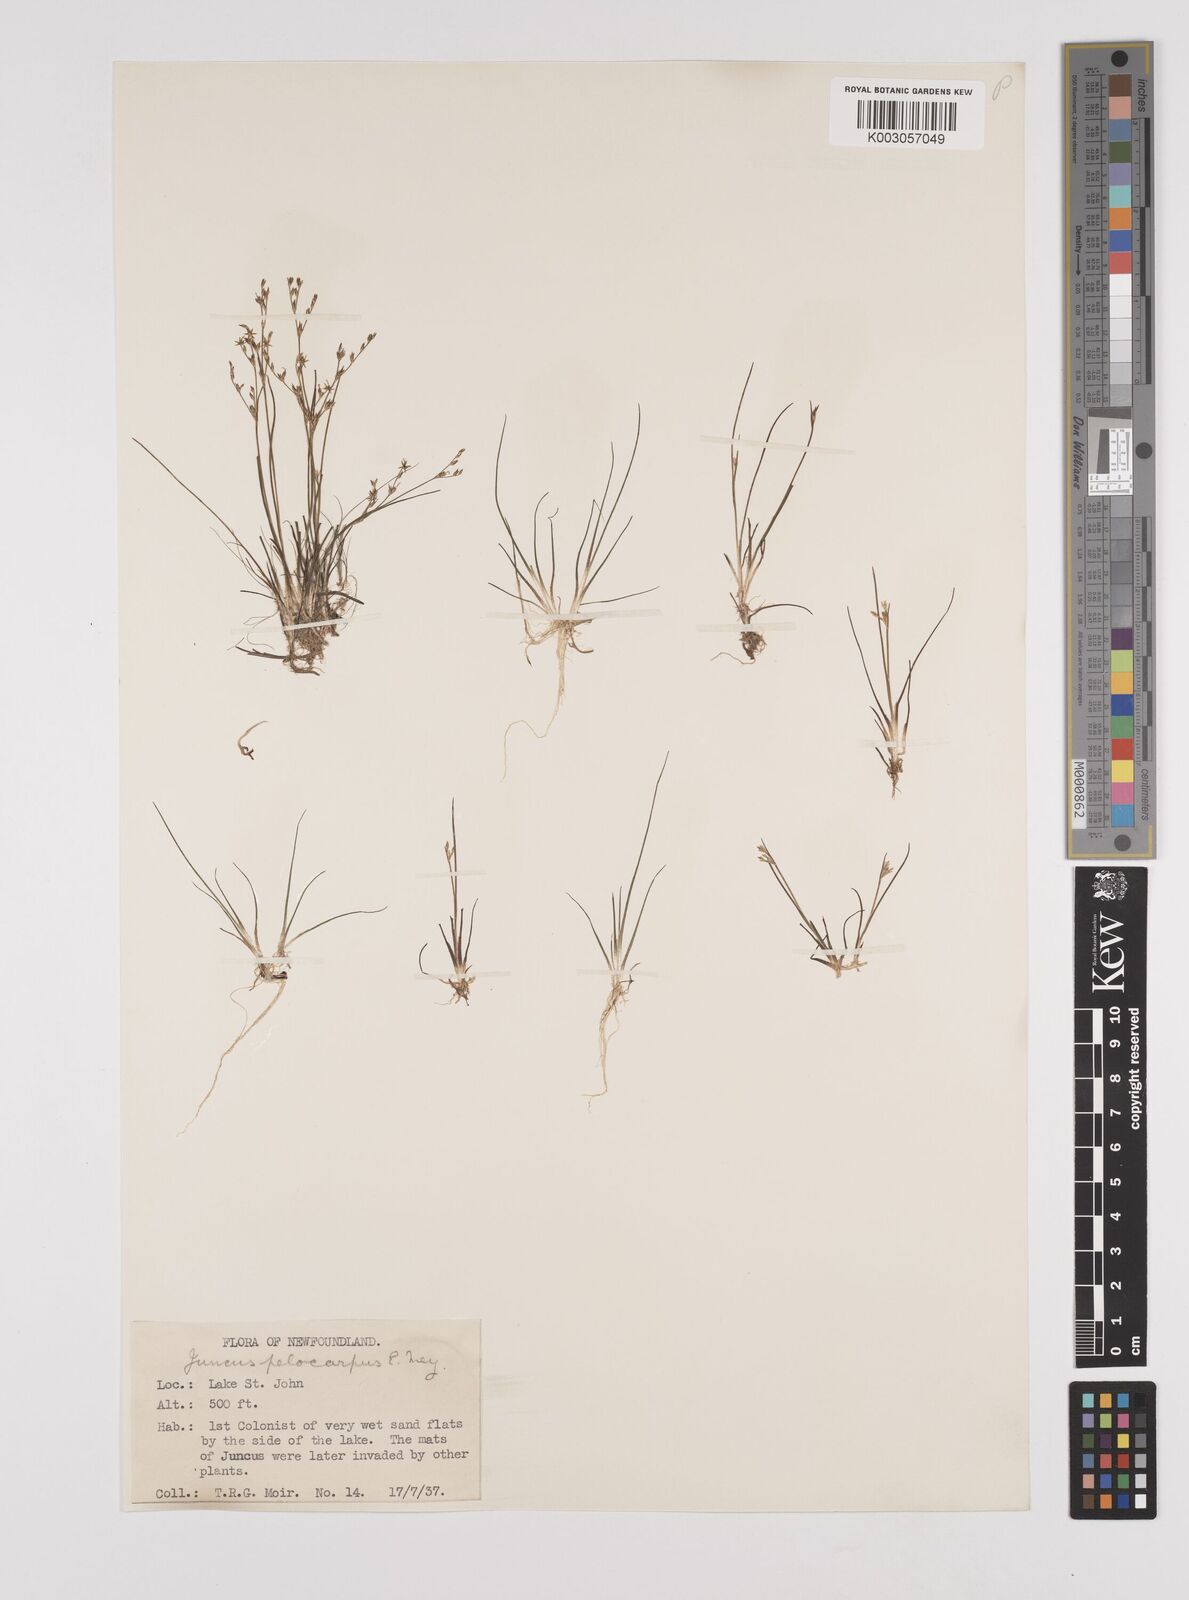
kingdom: Plantae
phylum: Tracheophyta
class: Liliopsida
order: Poales
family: Juncaceae
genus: Juncus
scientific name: Juncus pelocarpus
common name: Brown-fruited rush
